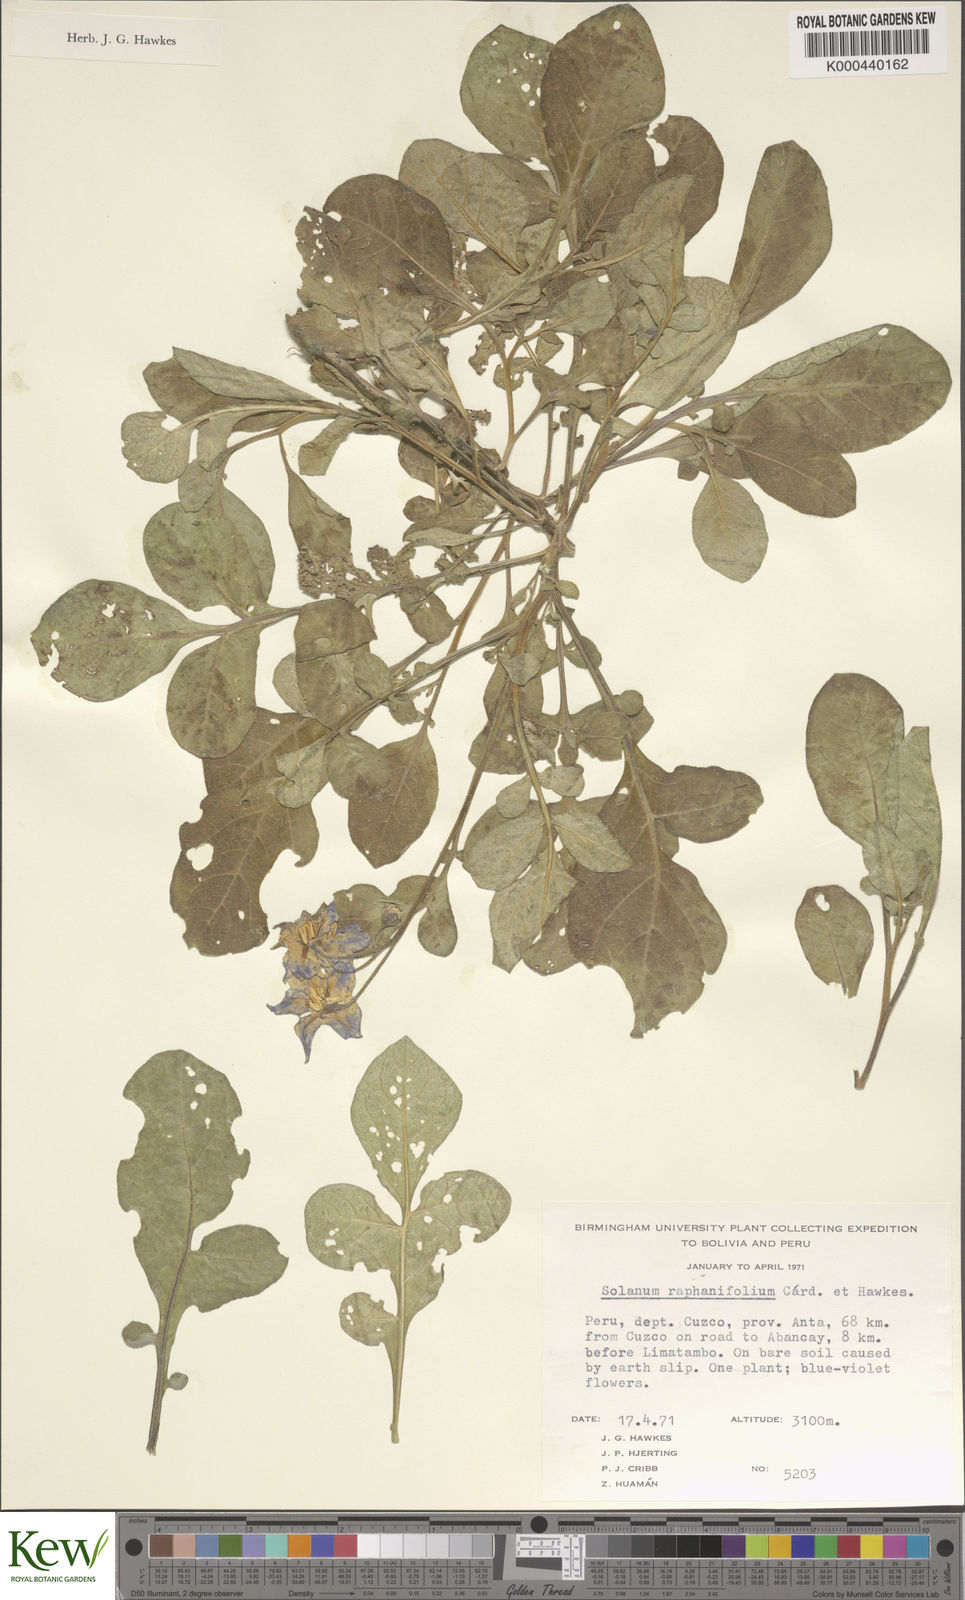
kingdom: Plantae
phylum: Tracheophyta
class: Magnoliopsida
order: Solanales
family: Solanaceae
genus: Solanum
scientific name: Solanum raphanifolium
